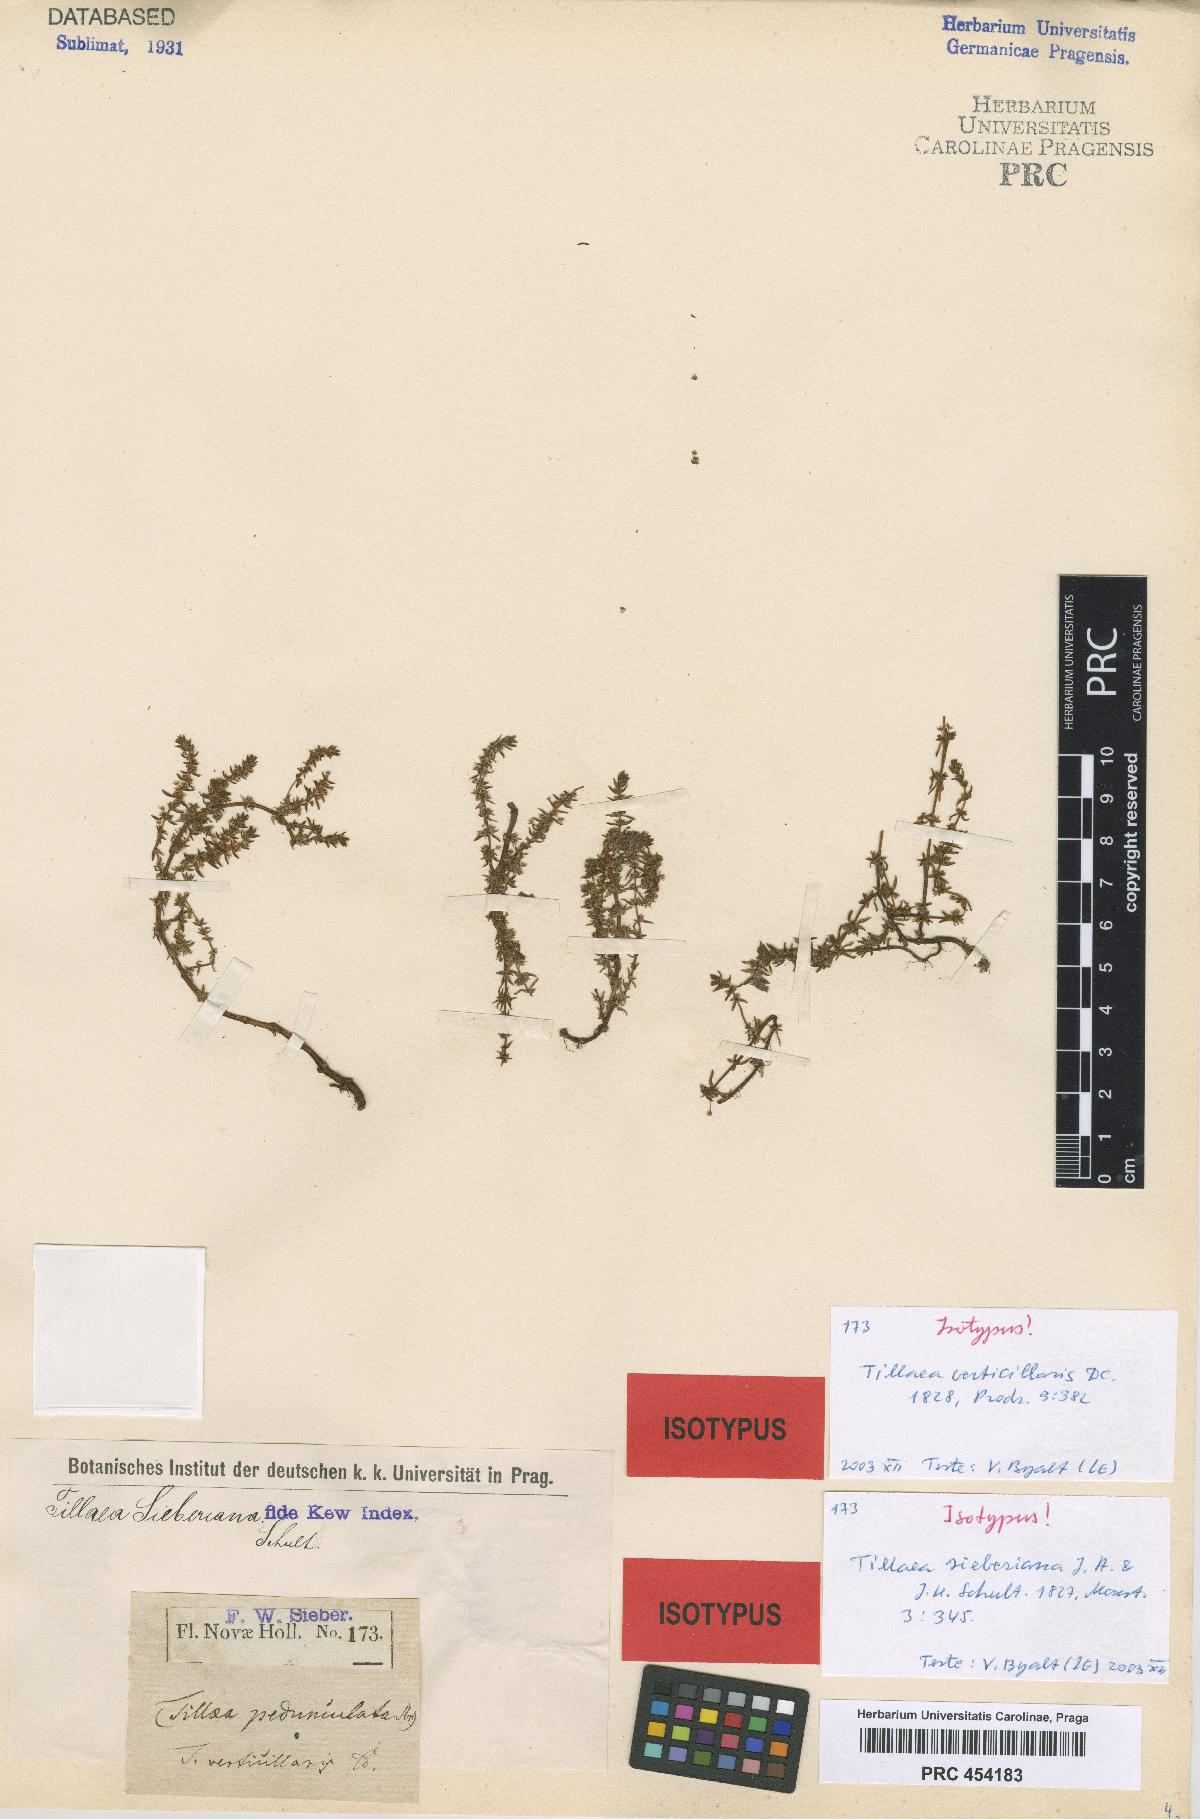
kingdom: Plantae
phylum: Tracheophyta
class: Magnoliopsida
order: Saxifragales
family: Crassulaceae
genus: Crassula
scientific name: Crassula sieberiana
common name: Siberian pygmyweed
